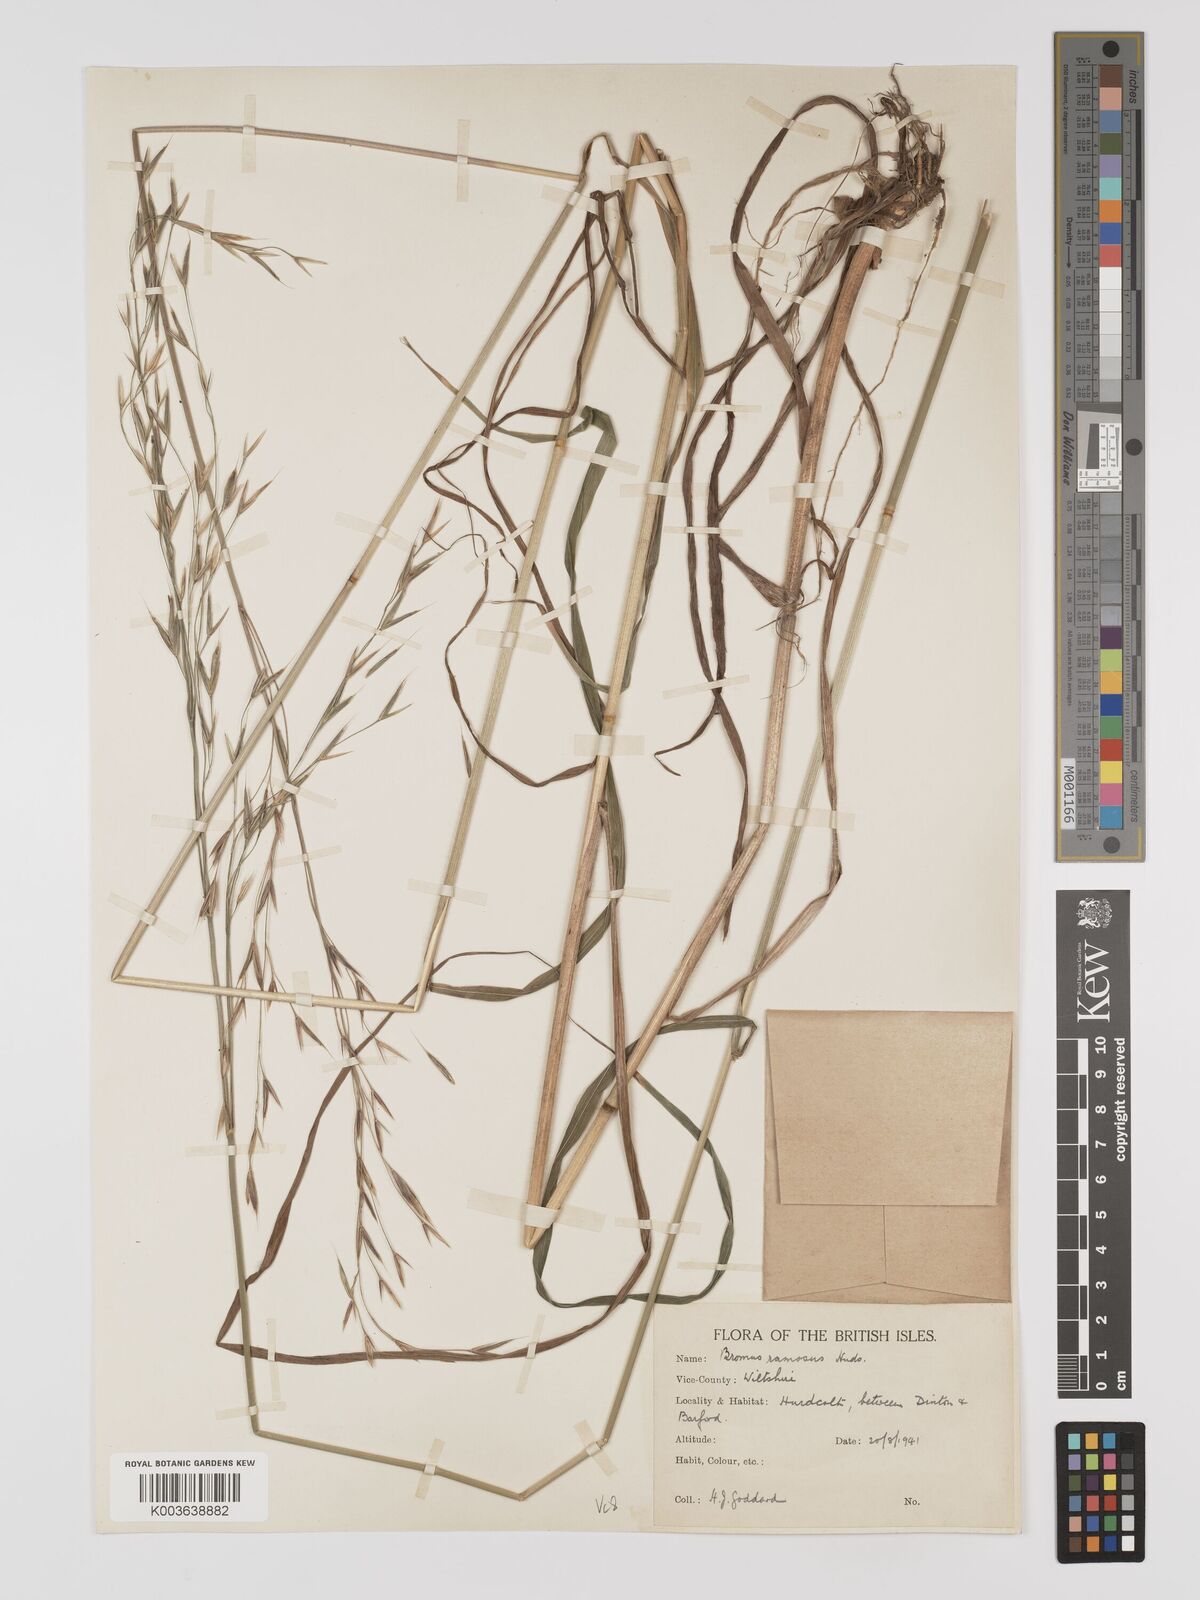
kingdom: Plantae
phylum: Tracheophyta
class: Liliopsida
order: Poales
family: Poaceae
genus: Brachypodium
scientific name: Brachypodium retusum
